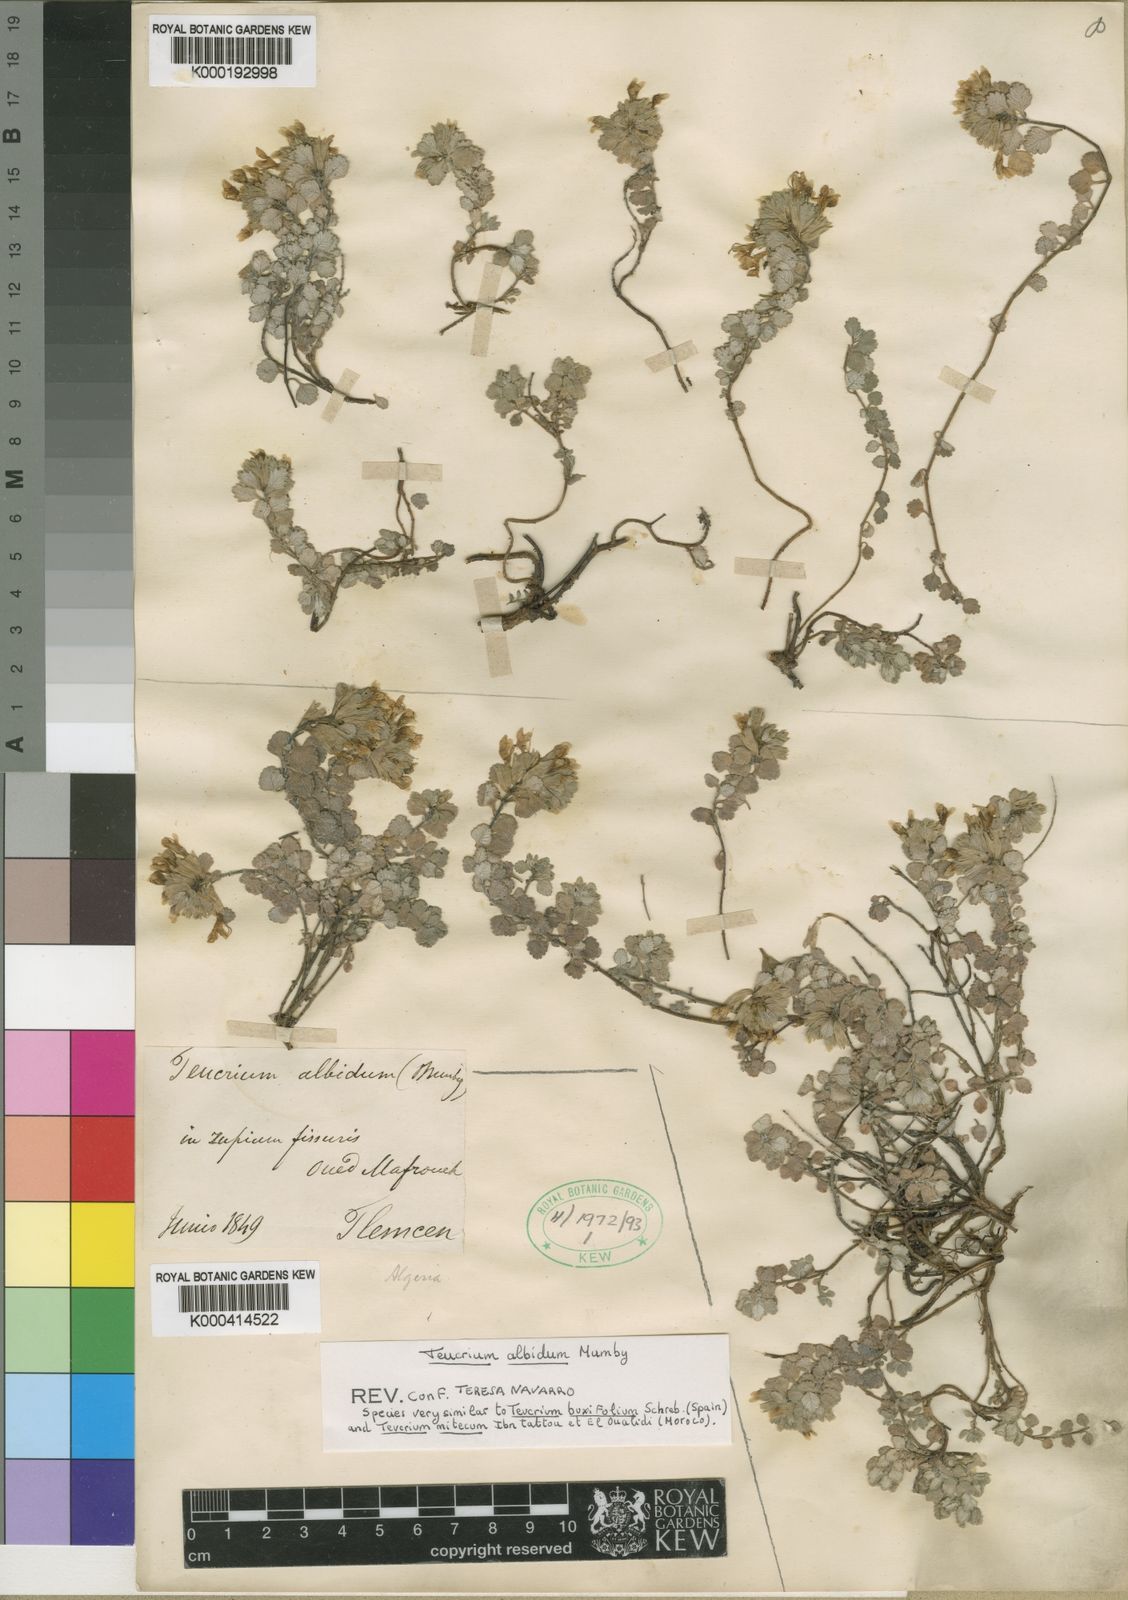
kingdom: Plantae
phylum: Tracheophyta
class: Magnoliopsida
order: Lamiales
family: Lamiaceae
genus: Teucrium
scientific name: Teucrium albidum
